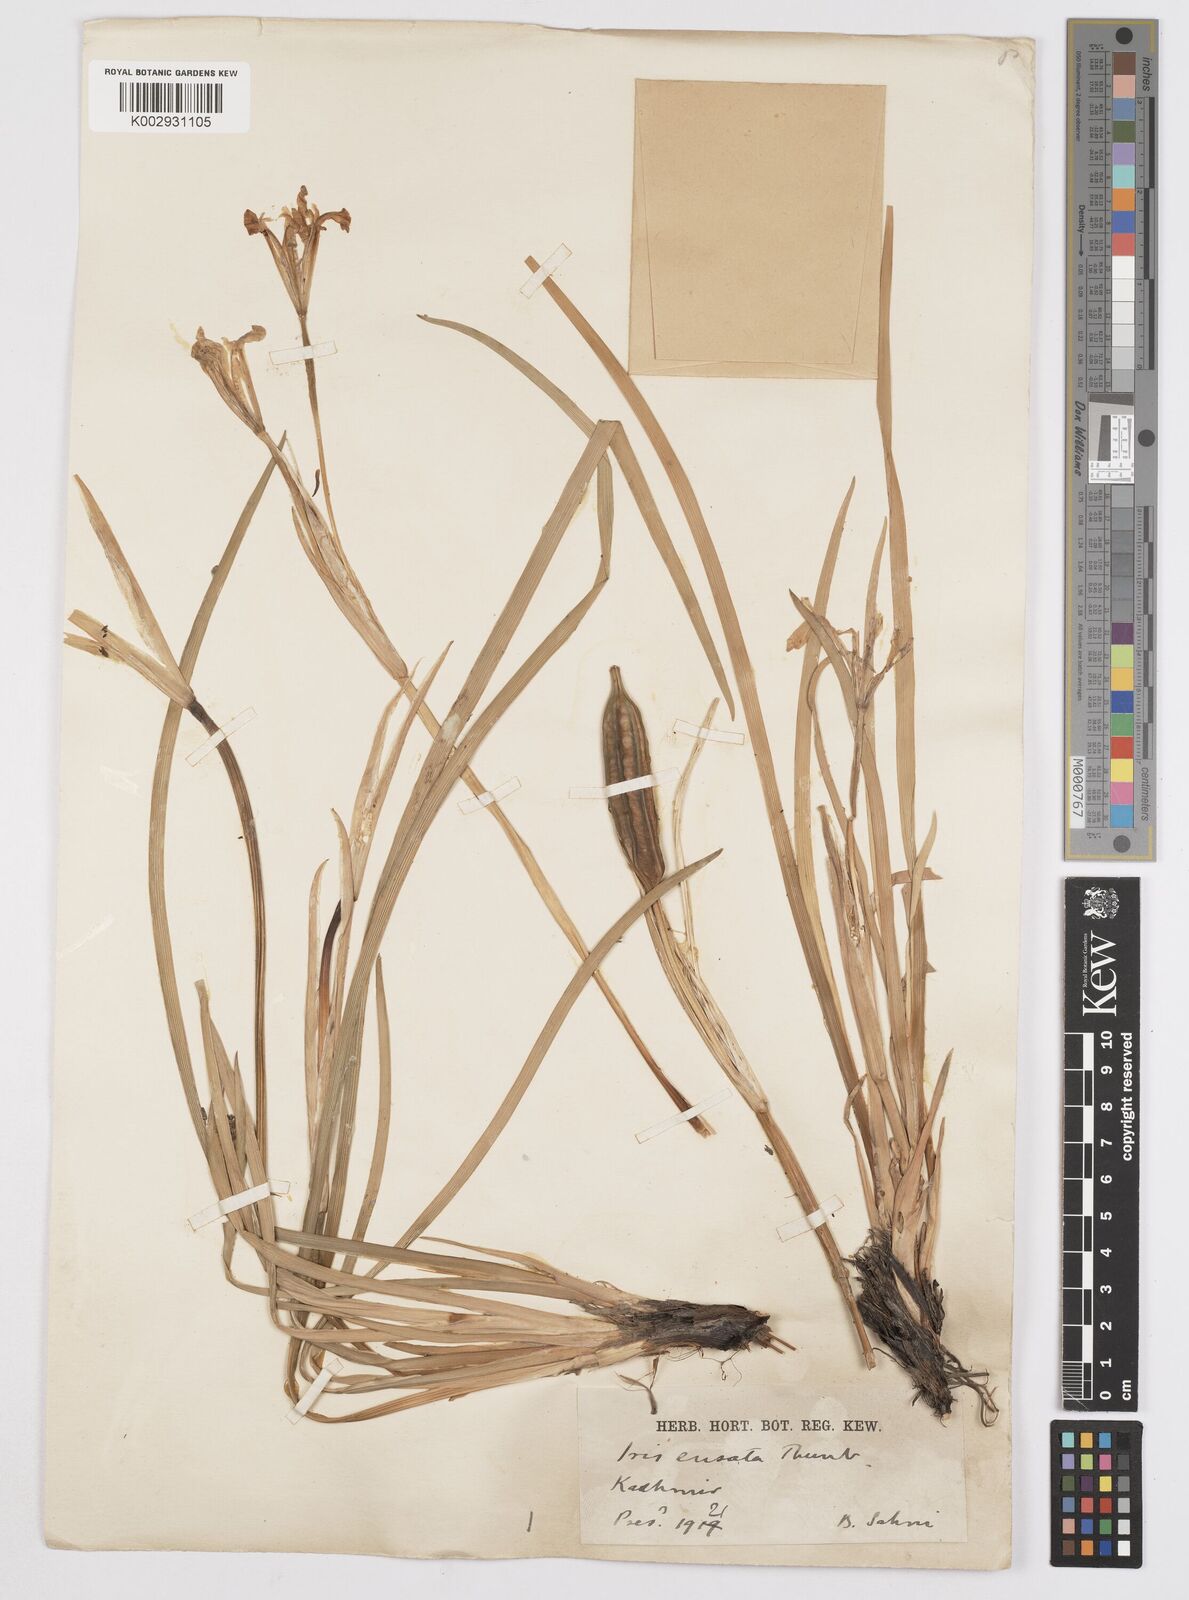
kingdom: Plantae
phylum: Tracheophyta
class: Liliopsida
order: Asparagales
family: Iridaceae
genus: Iris
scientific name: Iris ensata
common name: Beaked iris
